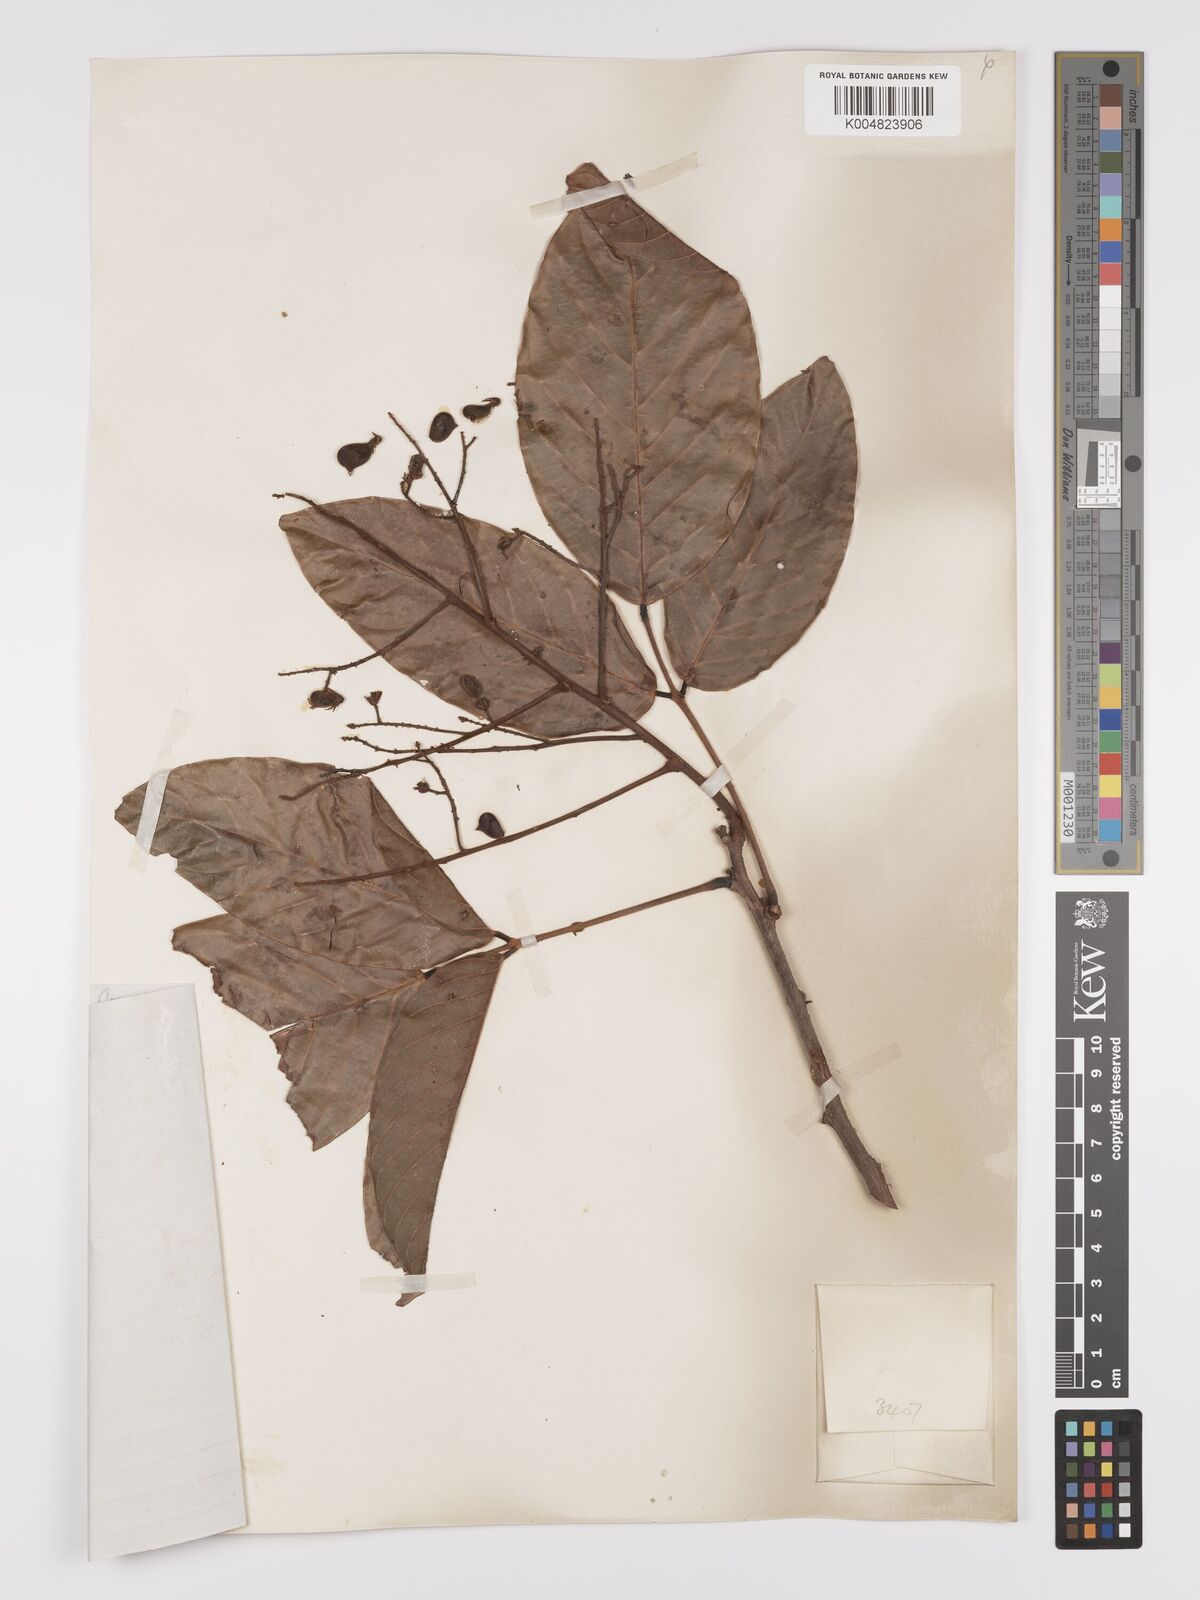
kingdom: Plantae
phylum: Tracheophyta
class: Magnoliopsida
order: Oxalidales
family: Connaraceae
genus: Connarus
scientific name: Connarus grandis
